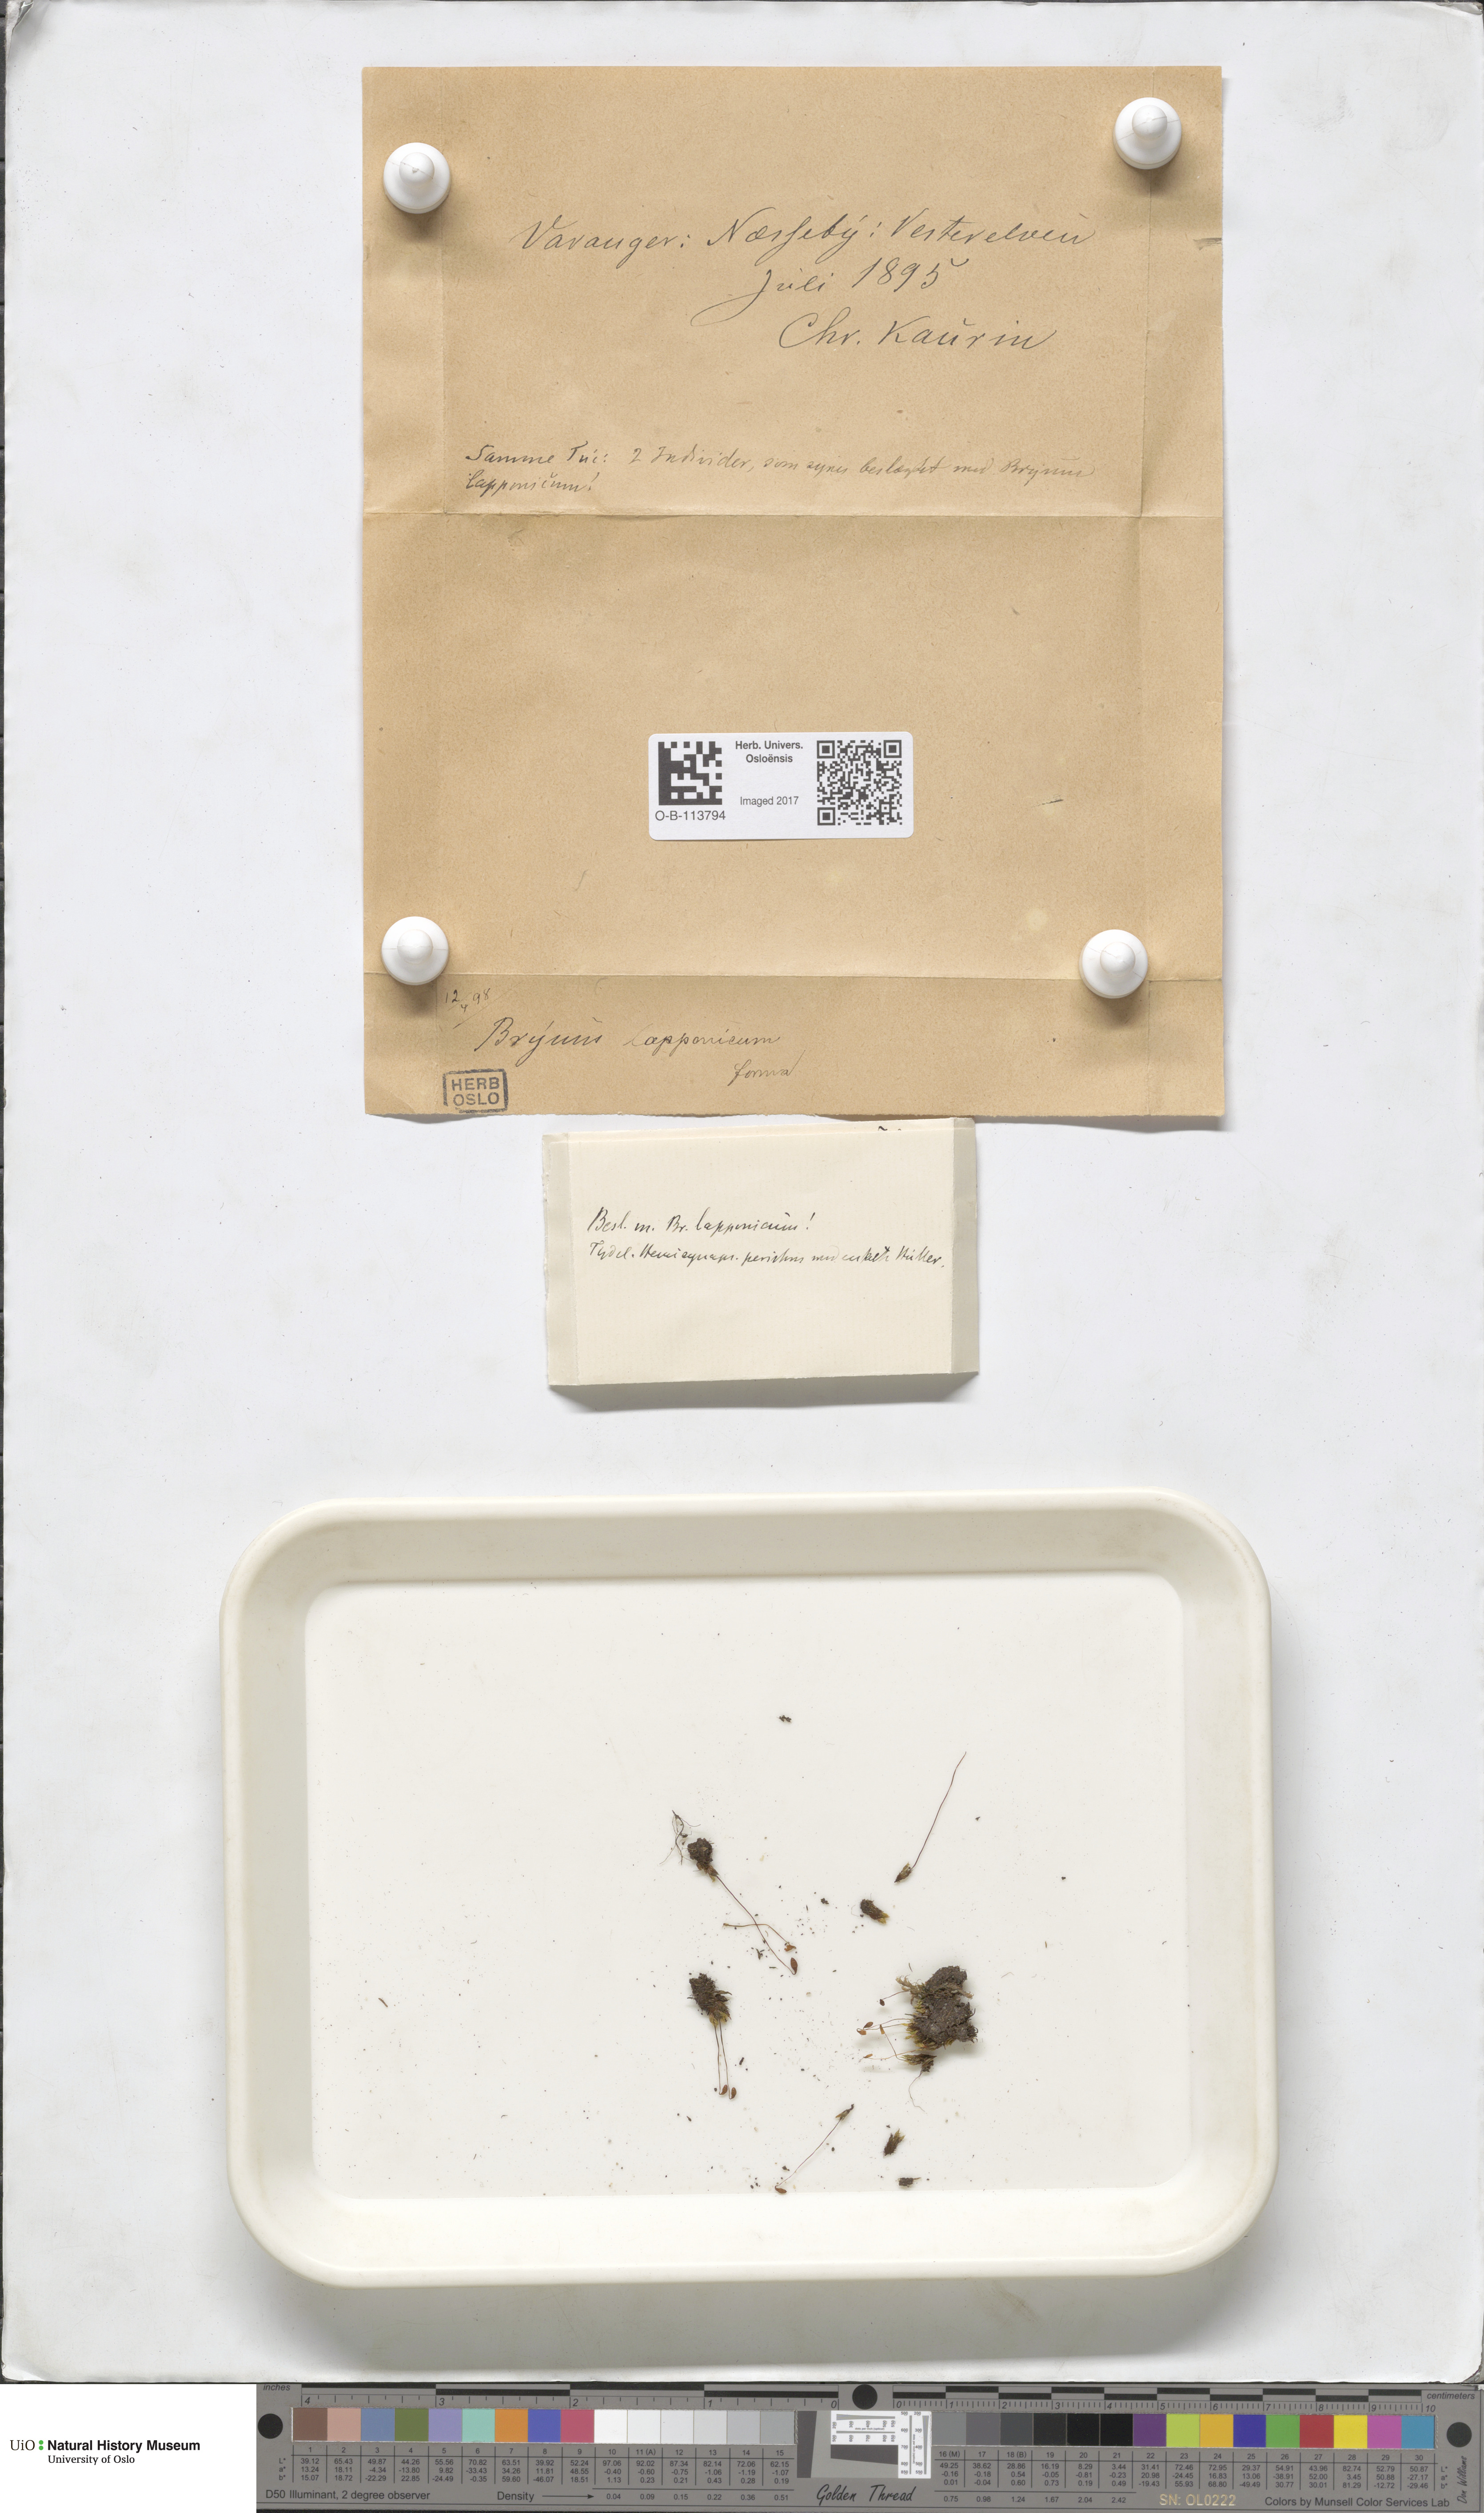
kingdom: Plantae
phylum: Bryophyta
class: Bryopsida
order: Dicranales
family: Amphidiaceae
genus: Amphidium
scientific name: Amphidium lapponicum
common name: Lapland yoke moss
